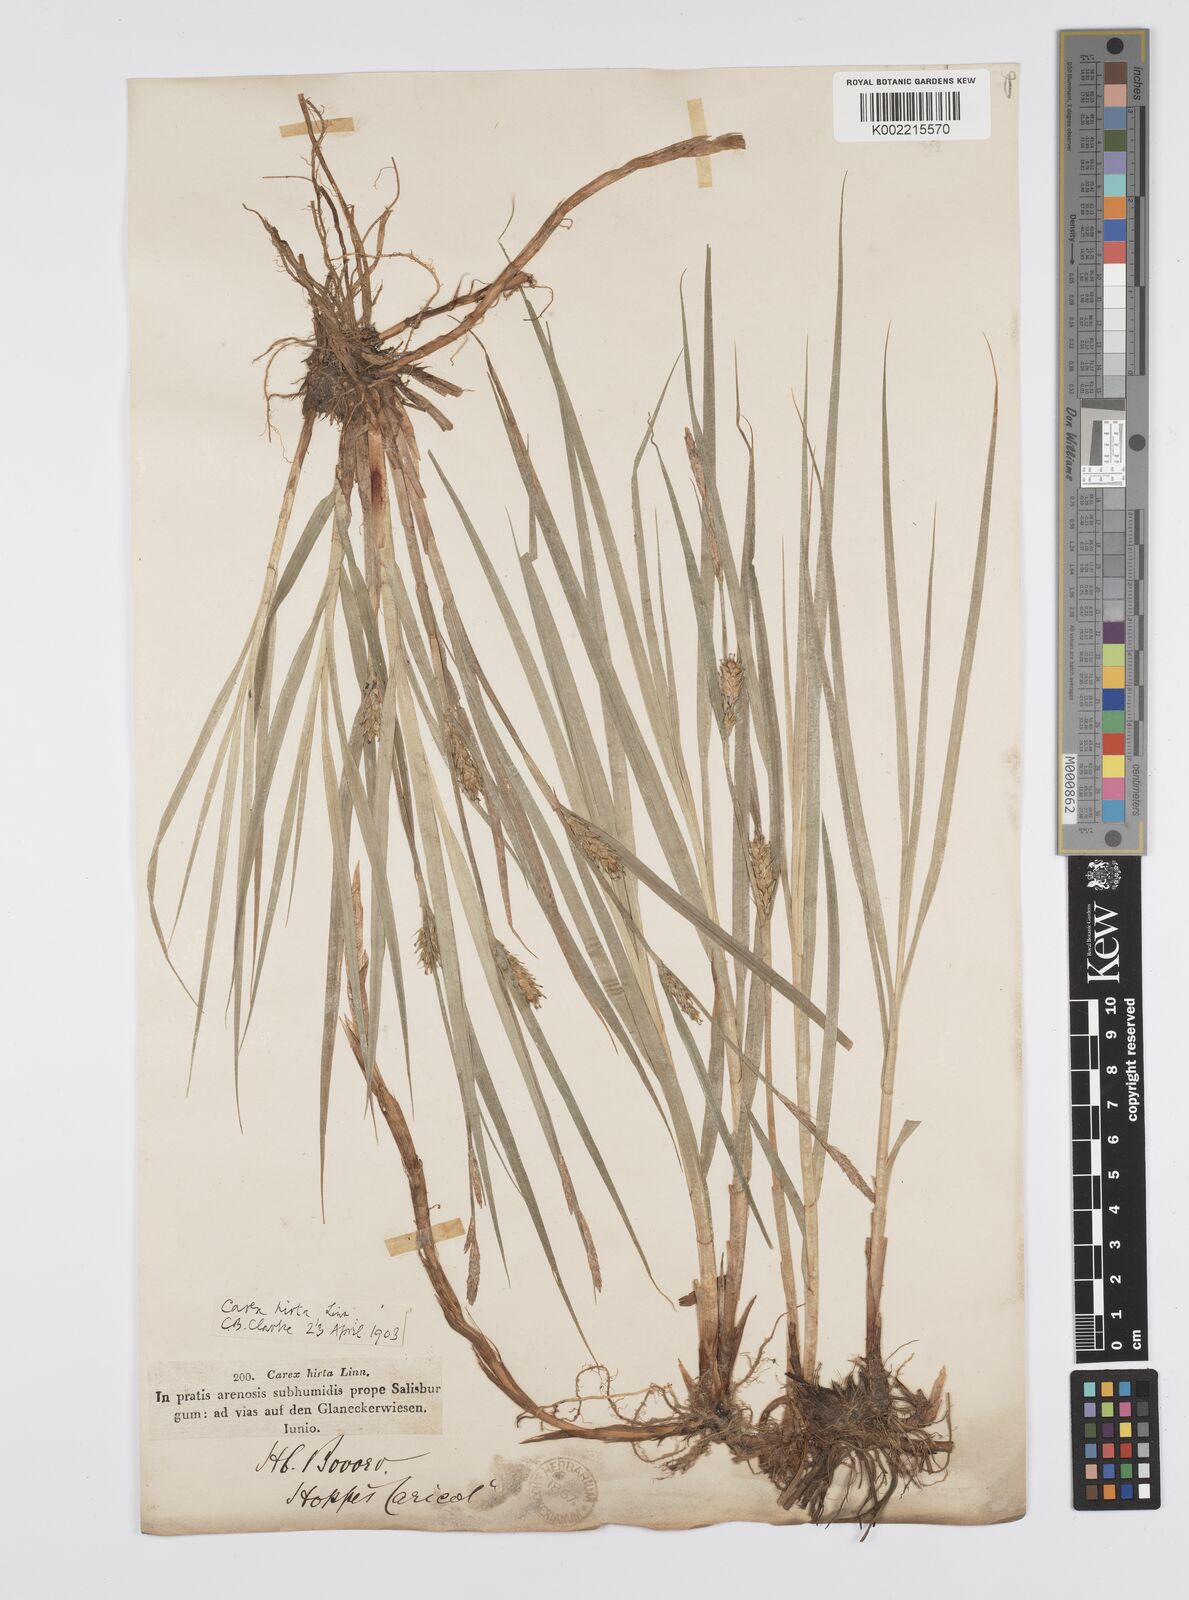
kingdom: Plantae
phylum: Tracheophyta
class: Liliopsida
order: Poales
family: Cyperaceae
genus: Carex
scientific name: Carex hirta
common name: Hairy sedge
